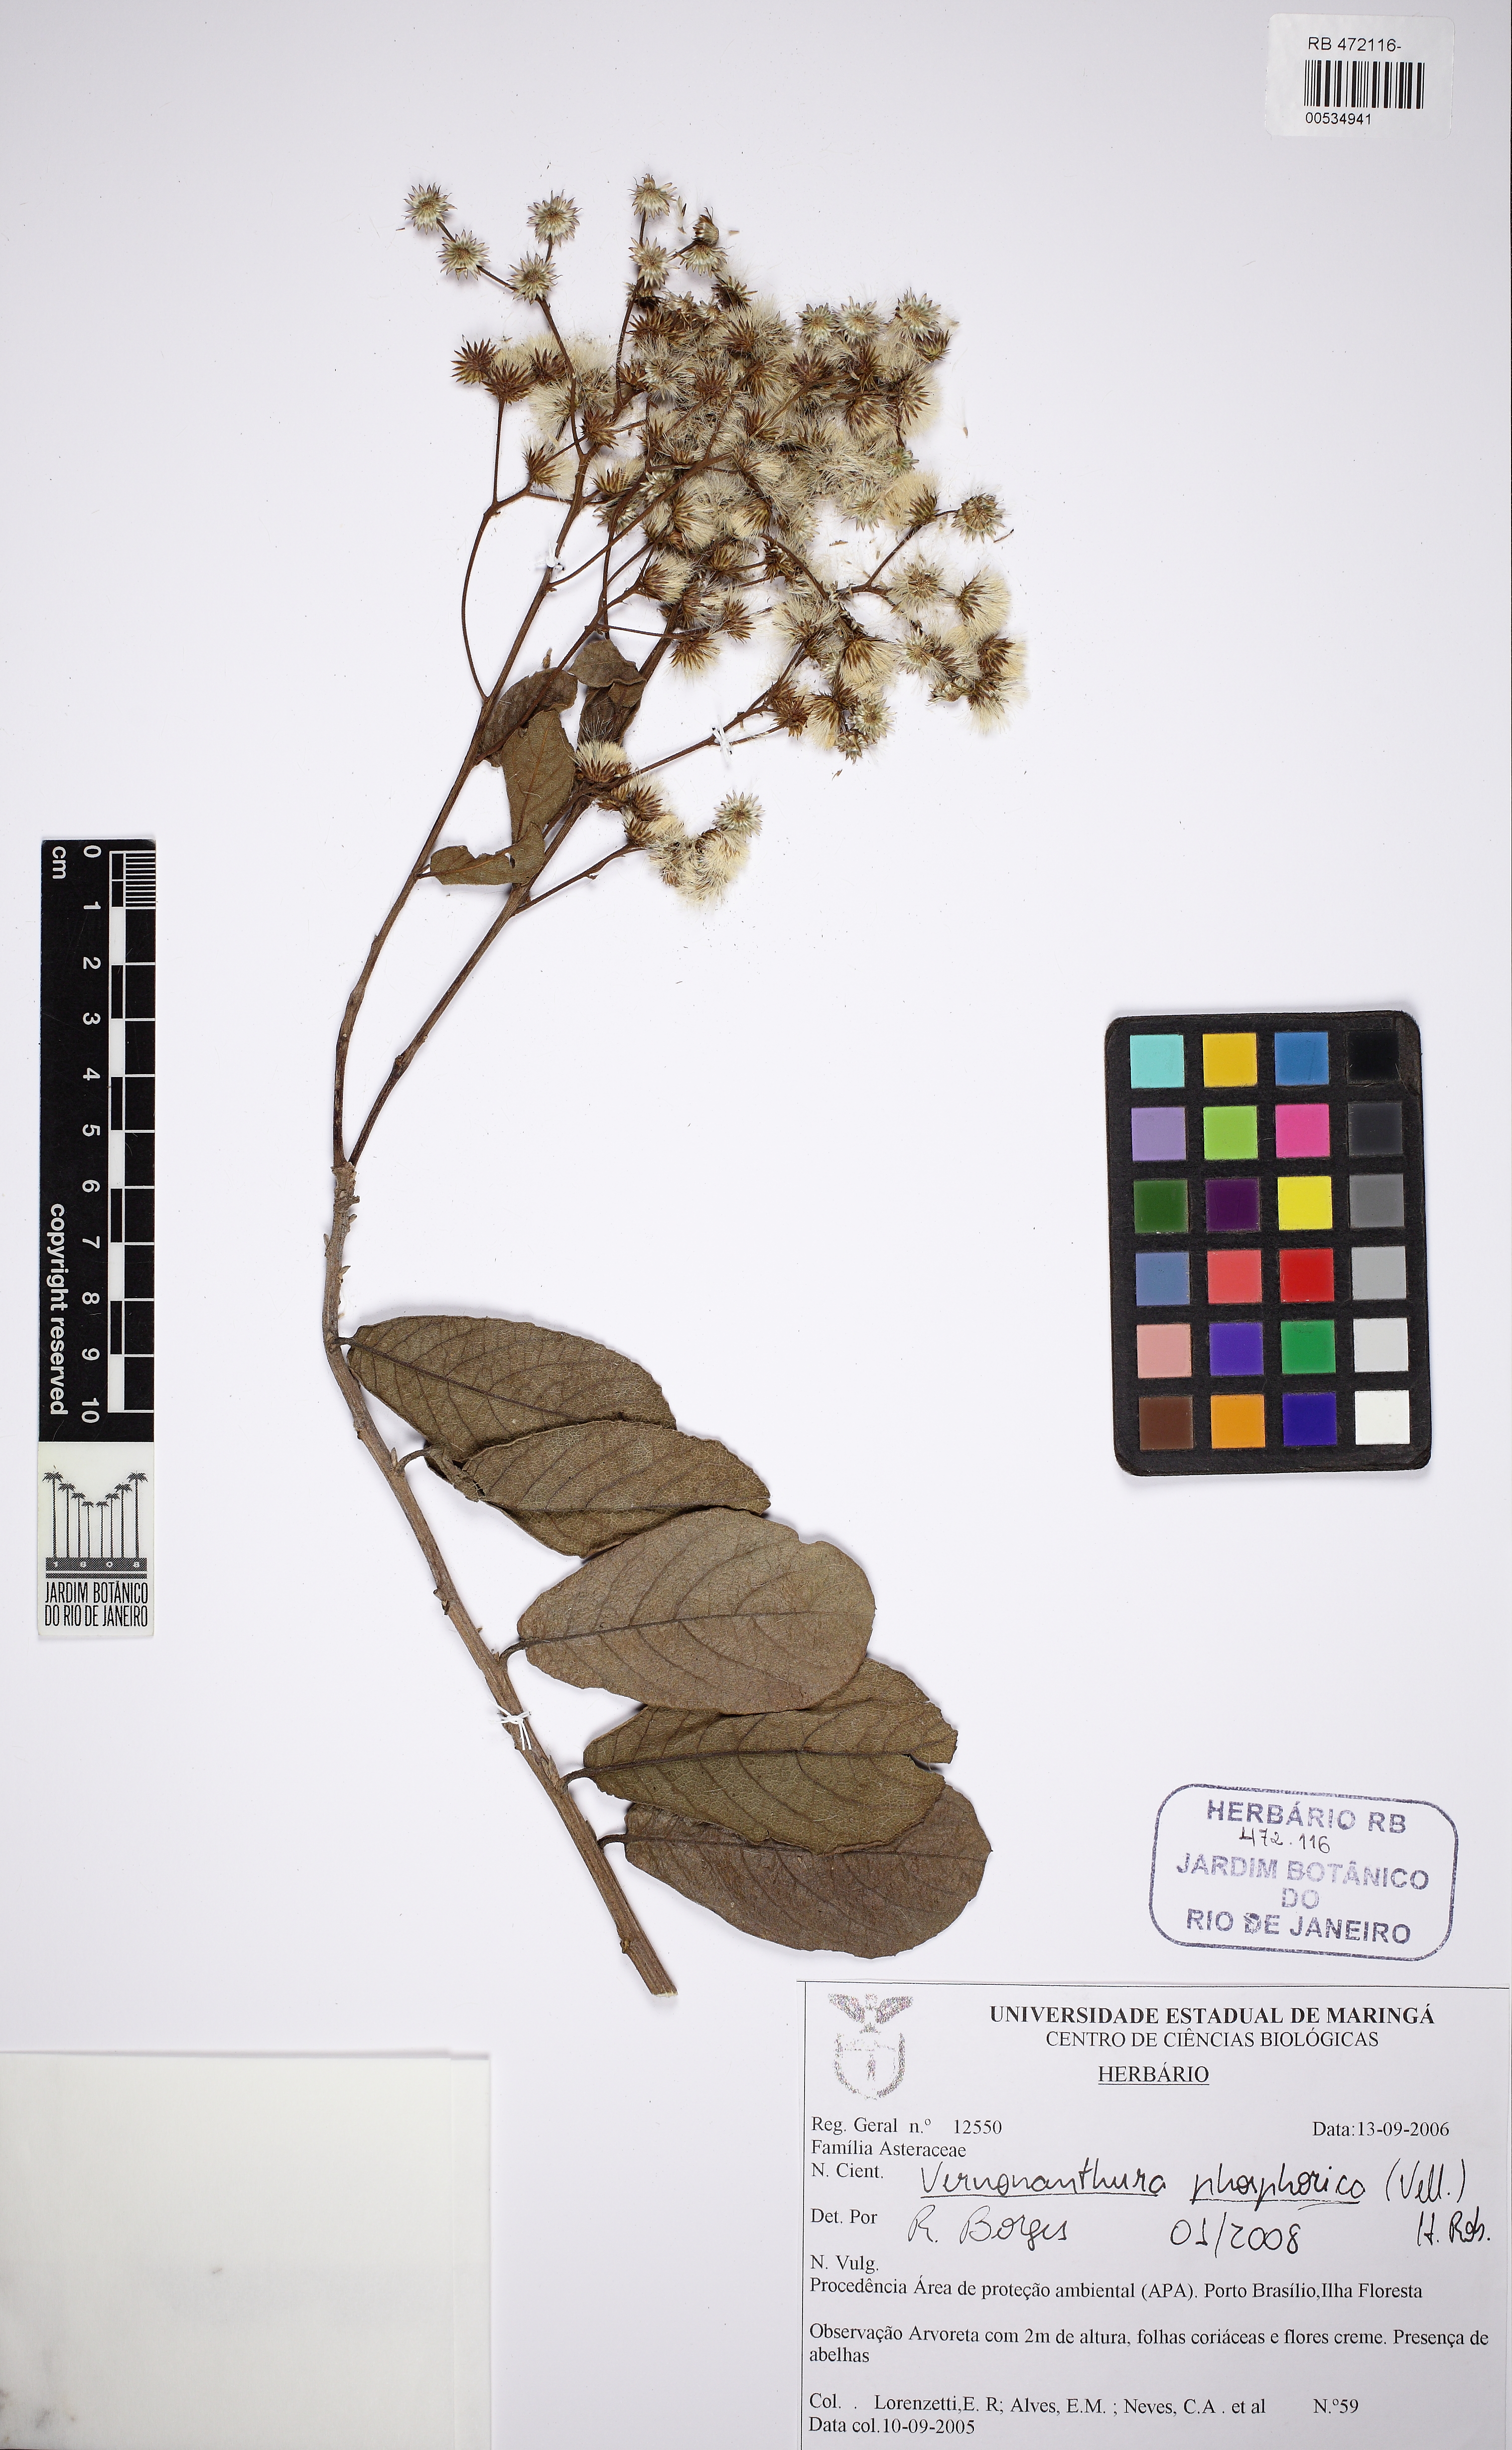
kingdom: Plantae
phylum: Tracheophyta
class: Magnoliopsida
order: Asterales
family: Asteraceae
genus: Vernonanthura
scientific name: Vernonanthura phosphorica
